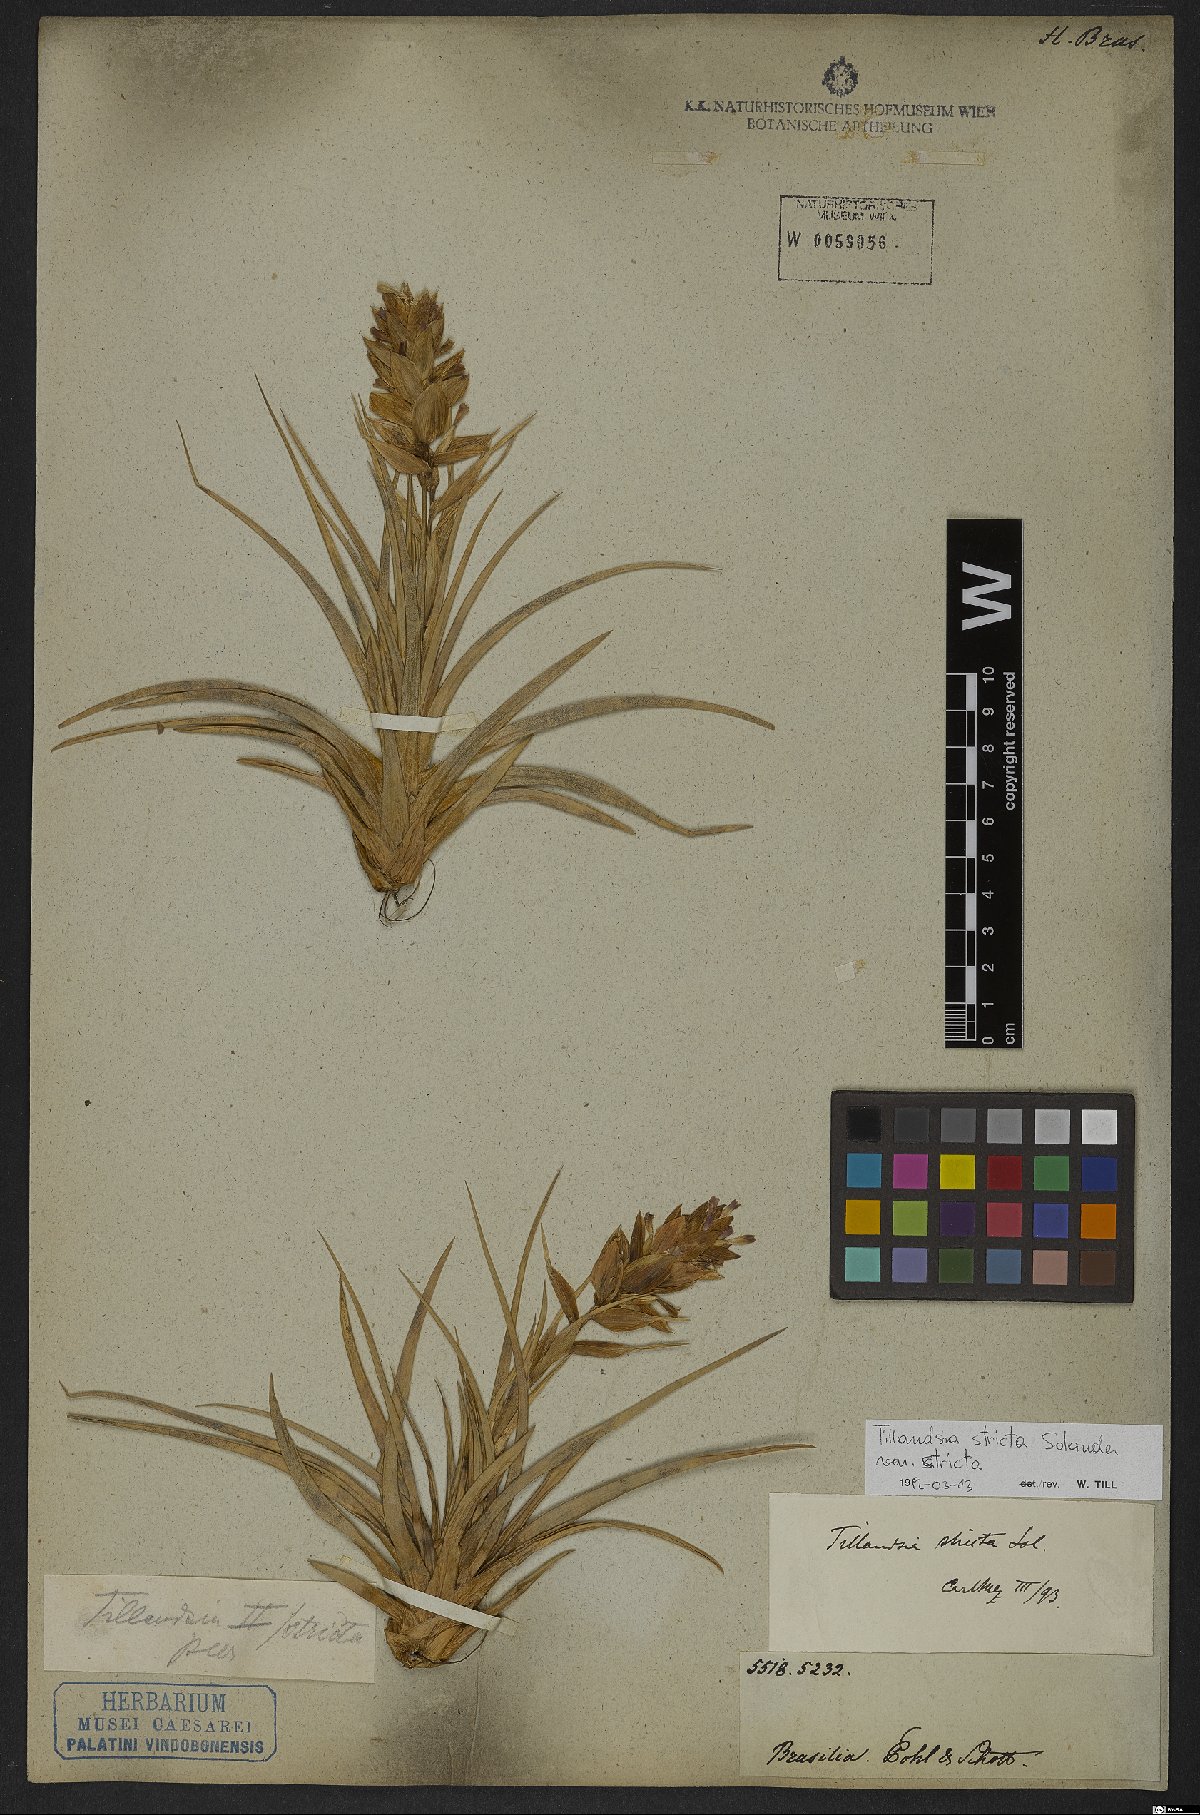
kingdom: Plantae
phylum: Tracheophyta
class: Liliopsida
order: Poales
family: Bromeliaceae
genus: Tillandsia
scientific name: Tillandsia stricta
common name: Airplant
